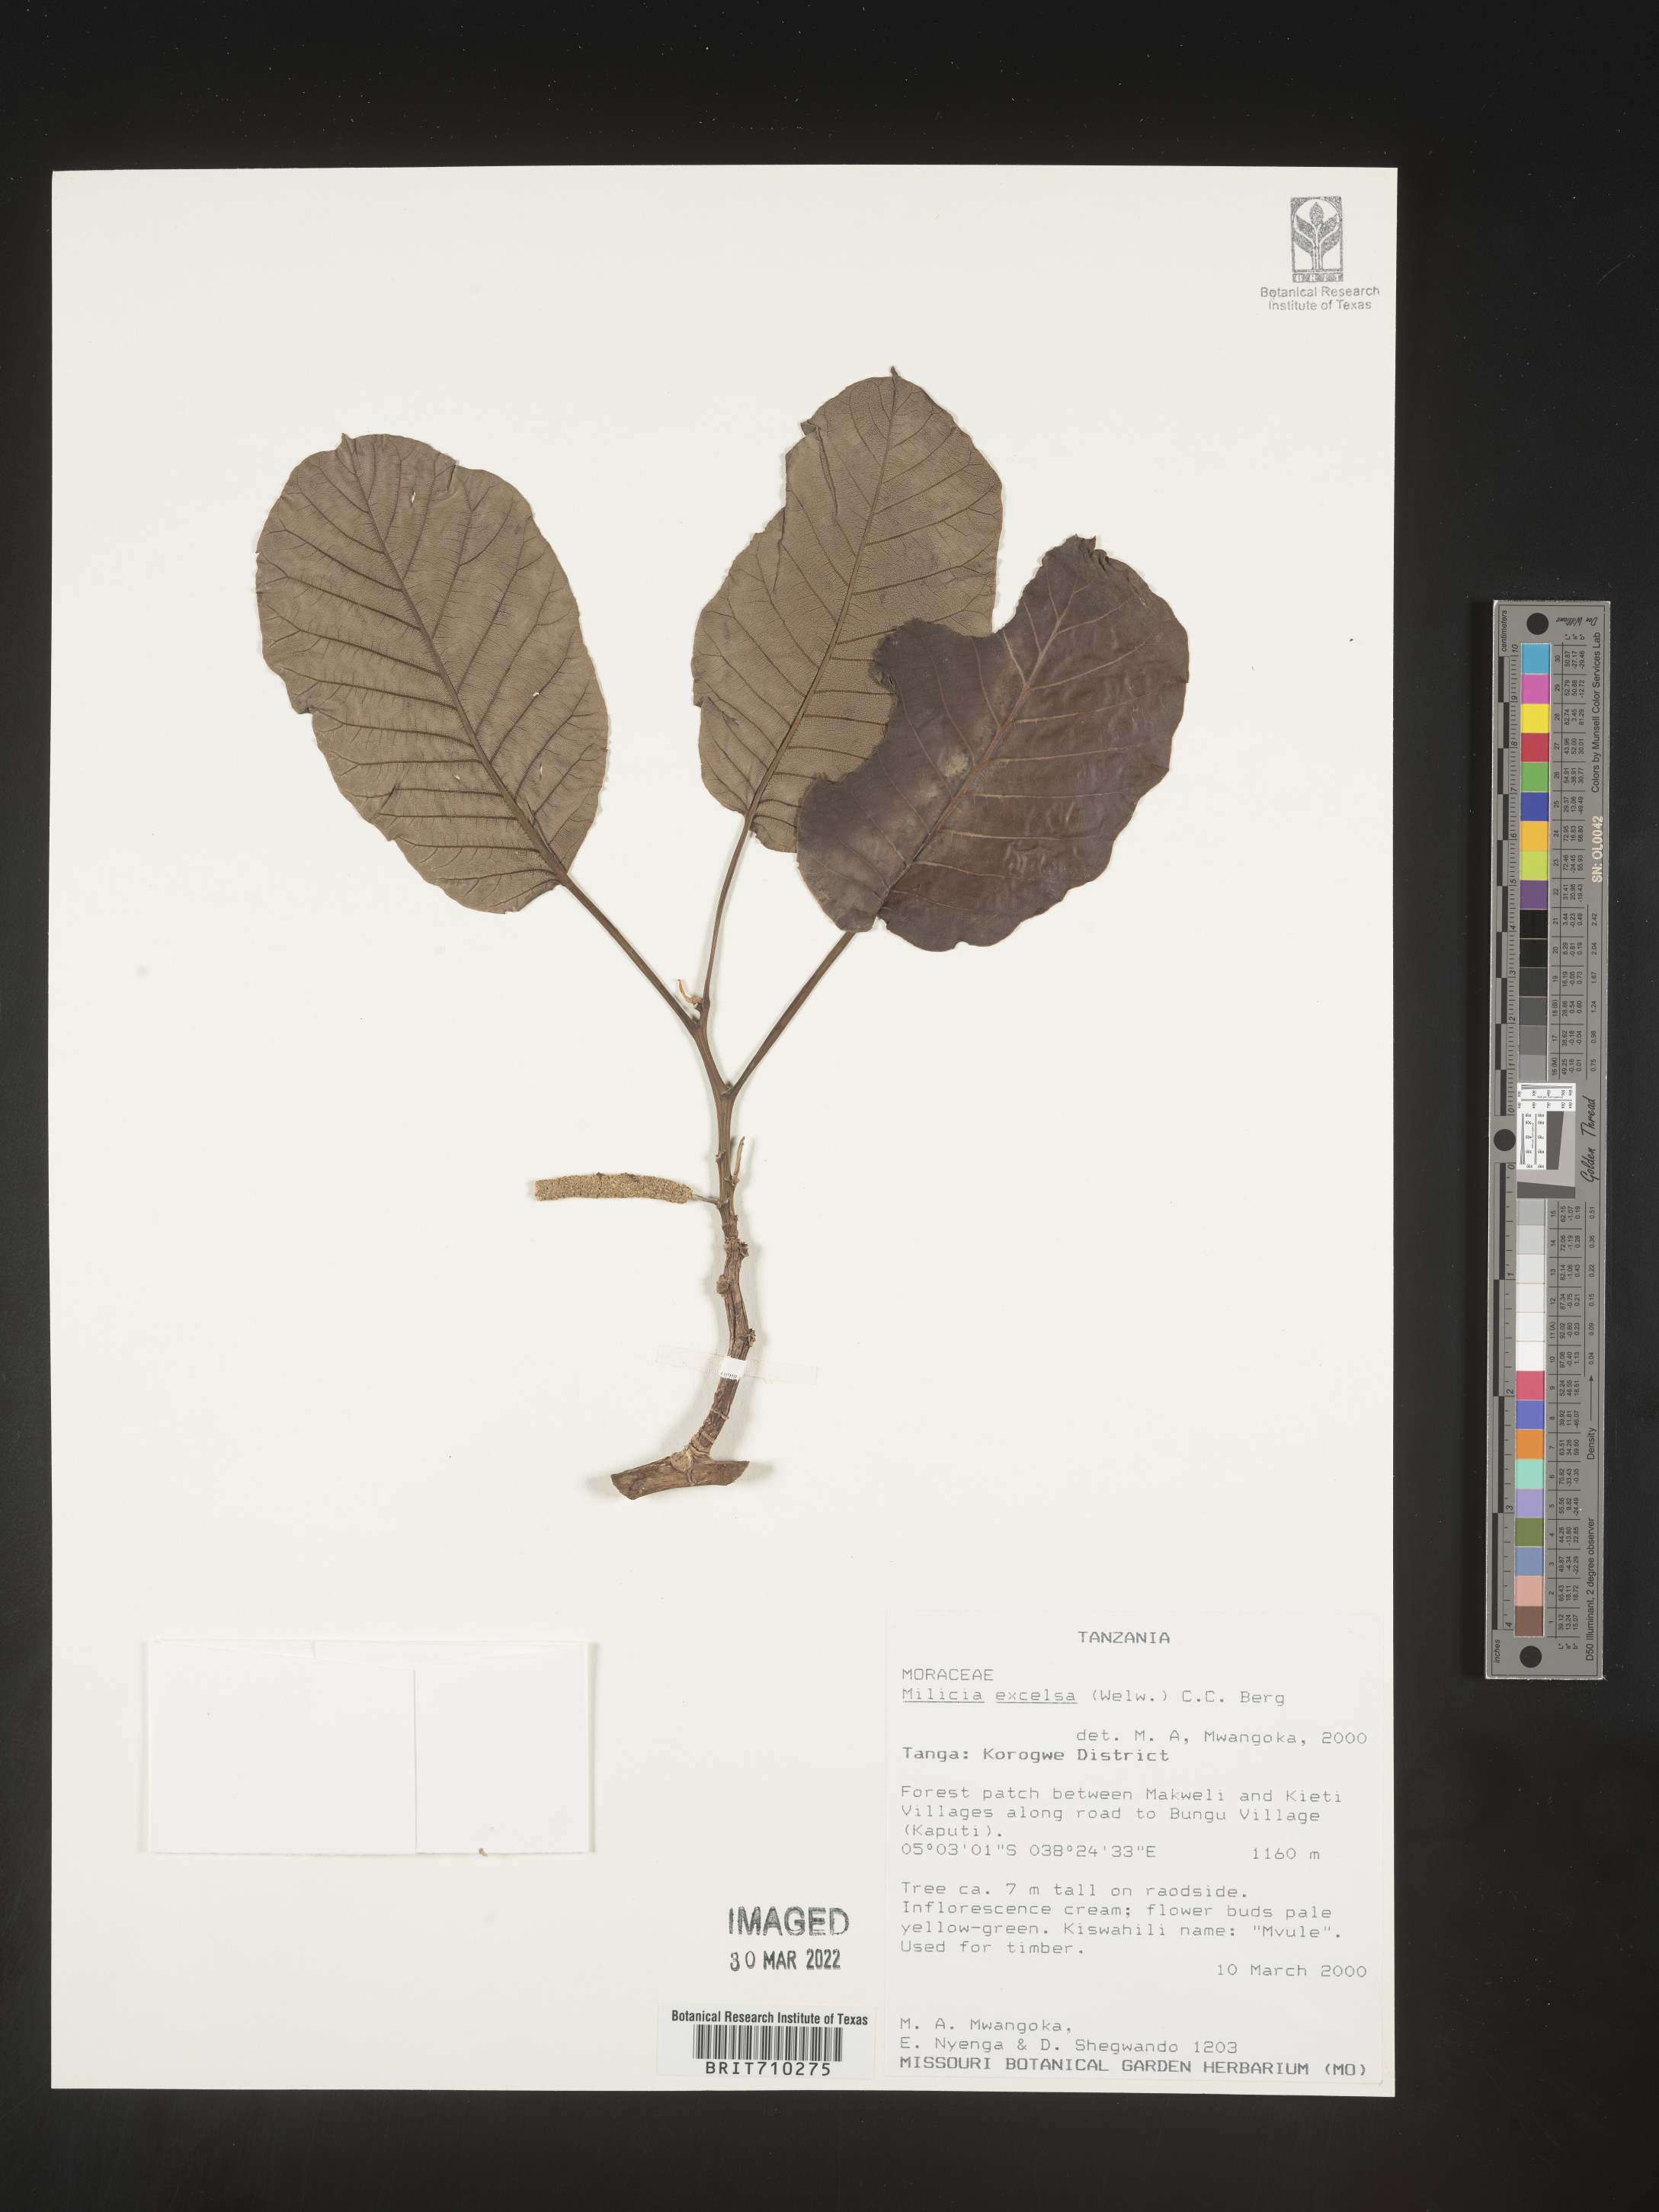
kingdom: Plantae
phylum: Tracheophyta
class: Magnoliopsida
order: Rosales
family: Moraceae
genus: Milicia
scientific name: Milicia
